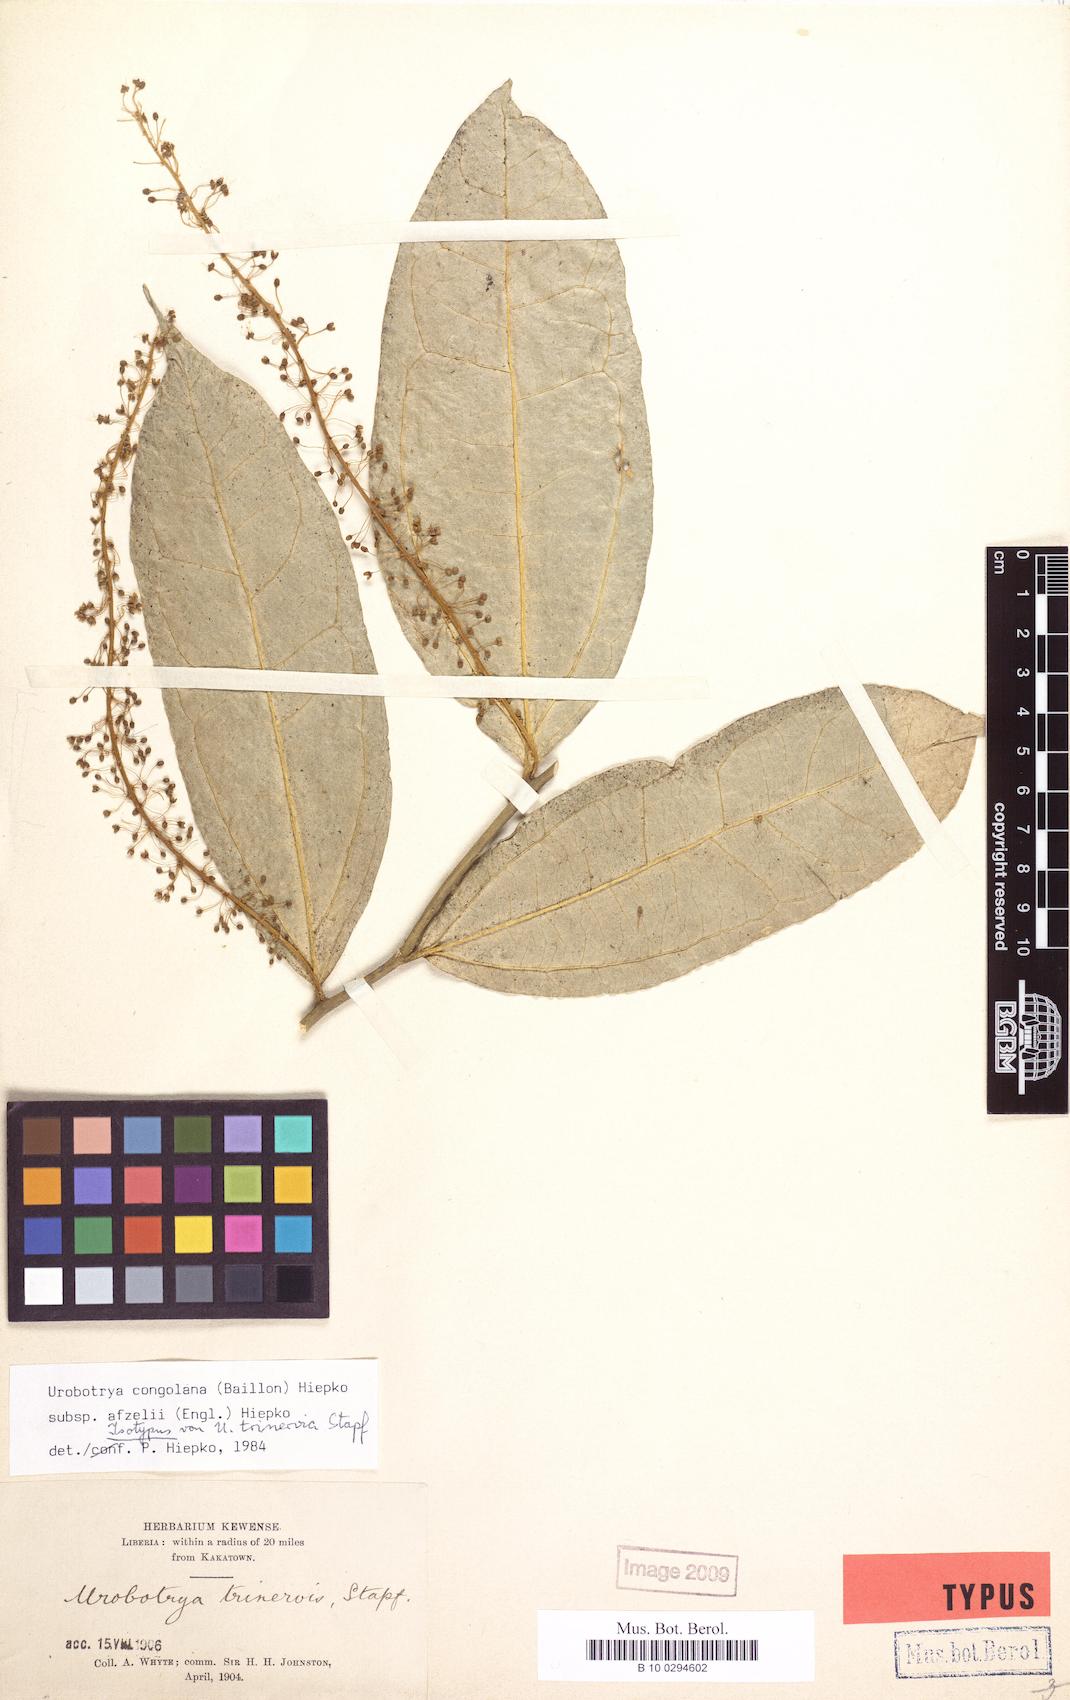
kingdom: Plantae
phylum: Tracheophyta
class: Magnoliopsida
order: Santalales
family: Opiliaceae
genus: Urobotrya
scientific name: Urobotrya congolana
